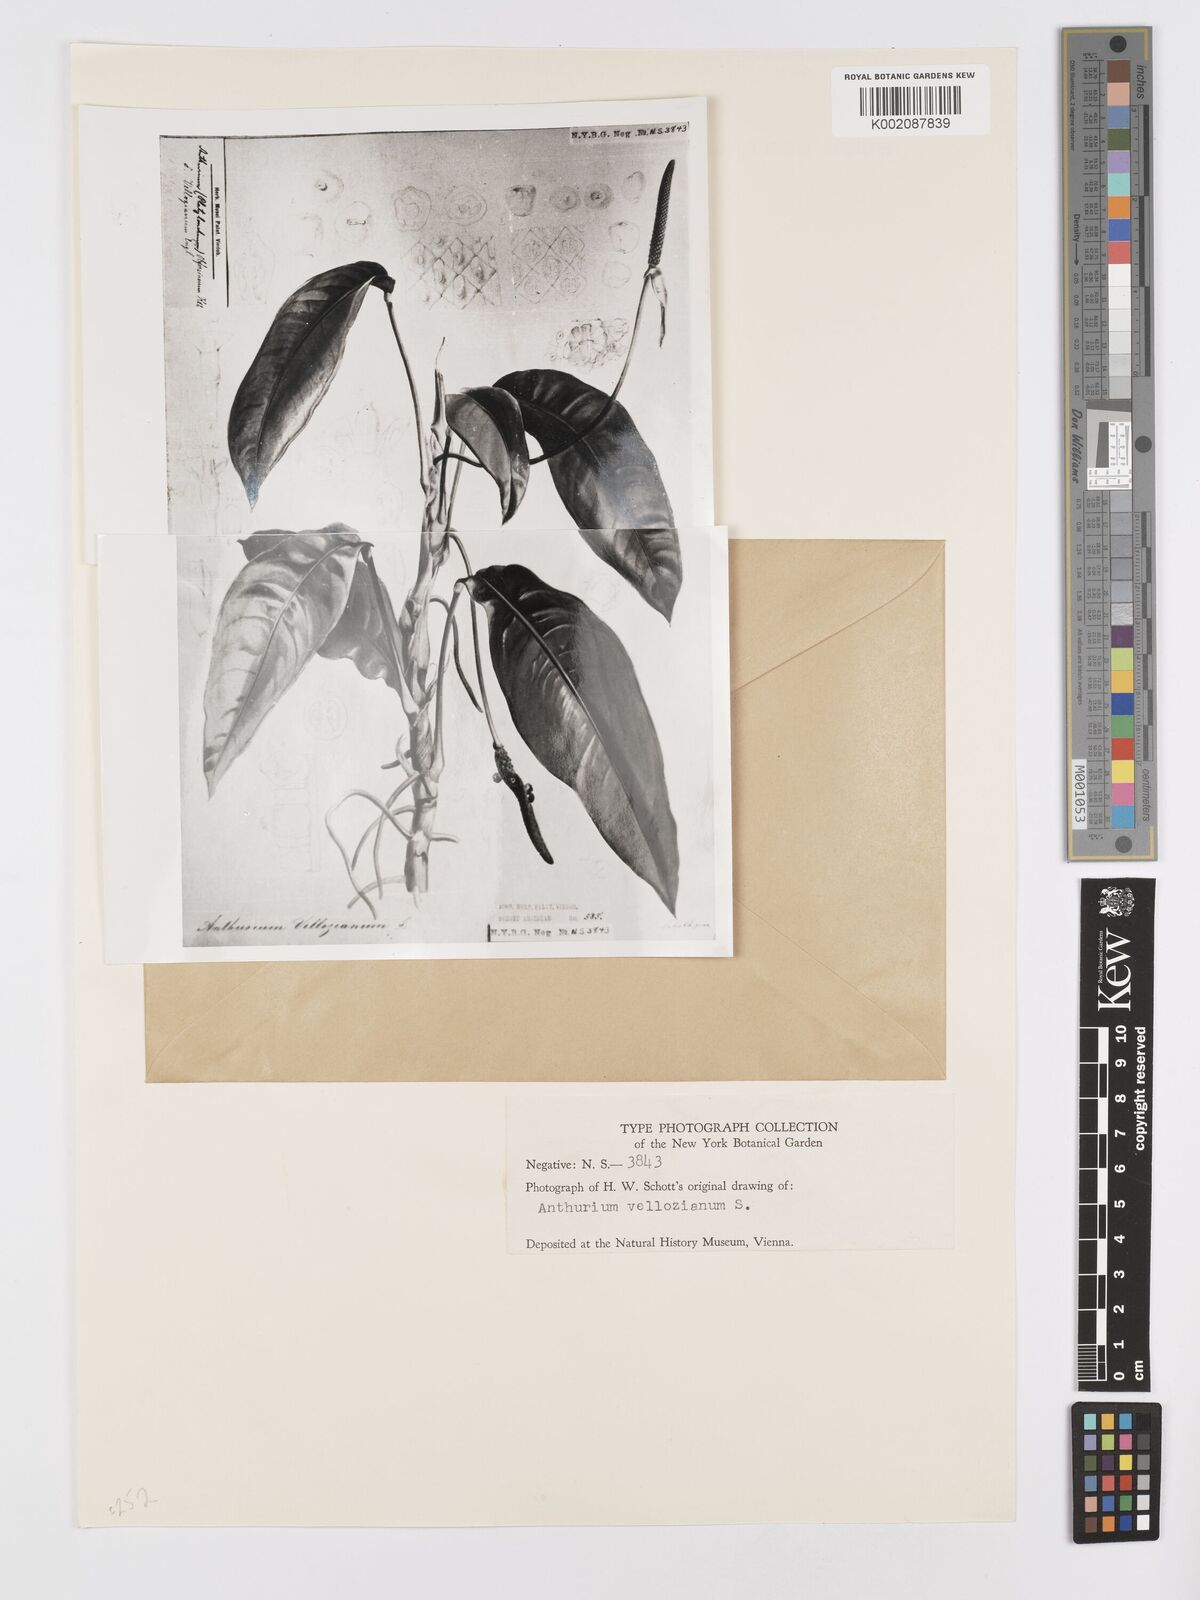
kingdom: Plantae
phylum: Tracheophyta
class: Liliopsida
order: Alismatales
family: Araceae
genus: Anthurium
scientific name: Anthurium parasiticum
